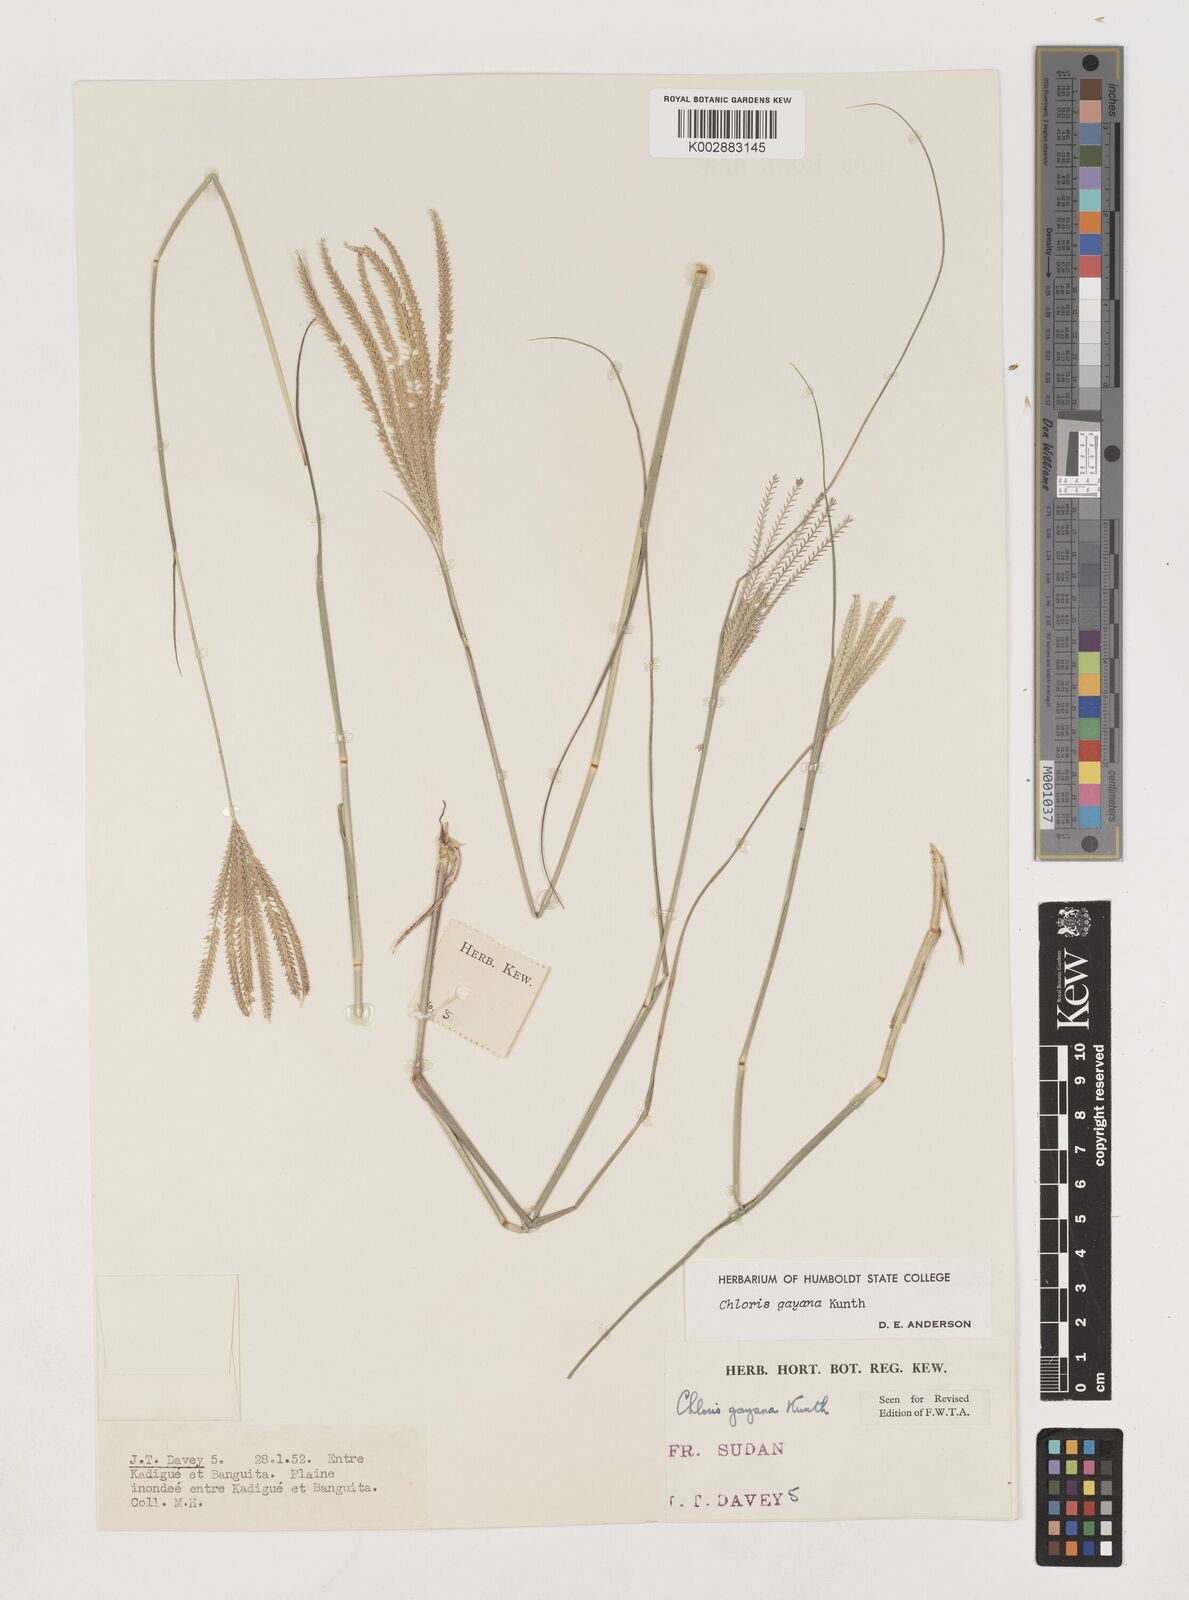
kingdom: Plantae
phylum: Tracheophyta
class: Liliopsida
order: Poales
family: Poaceae
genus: Chloris
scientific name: Chloris gayana
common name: Rhodes grass
